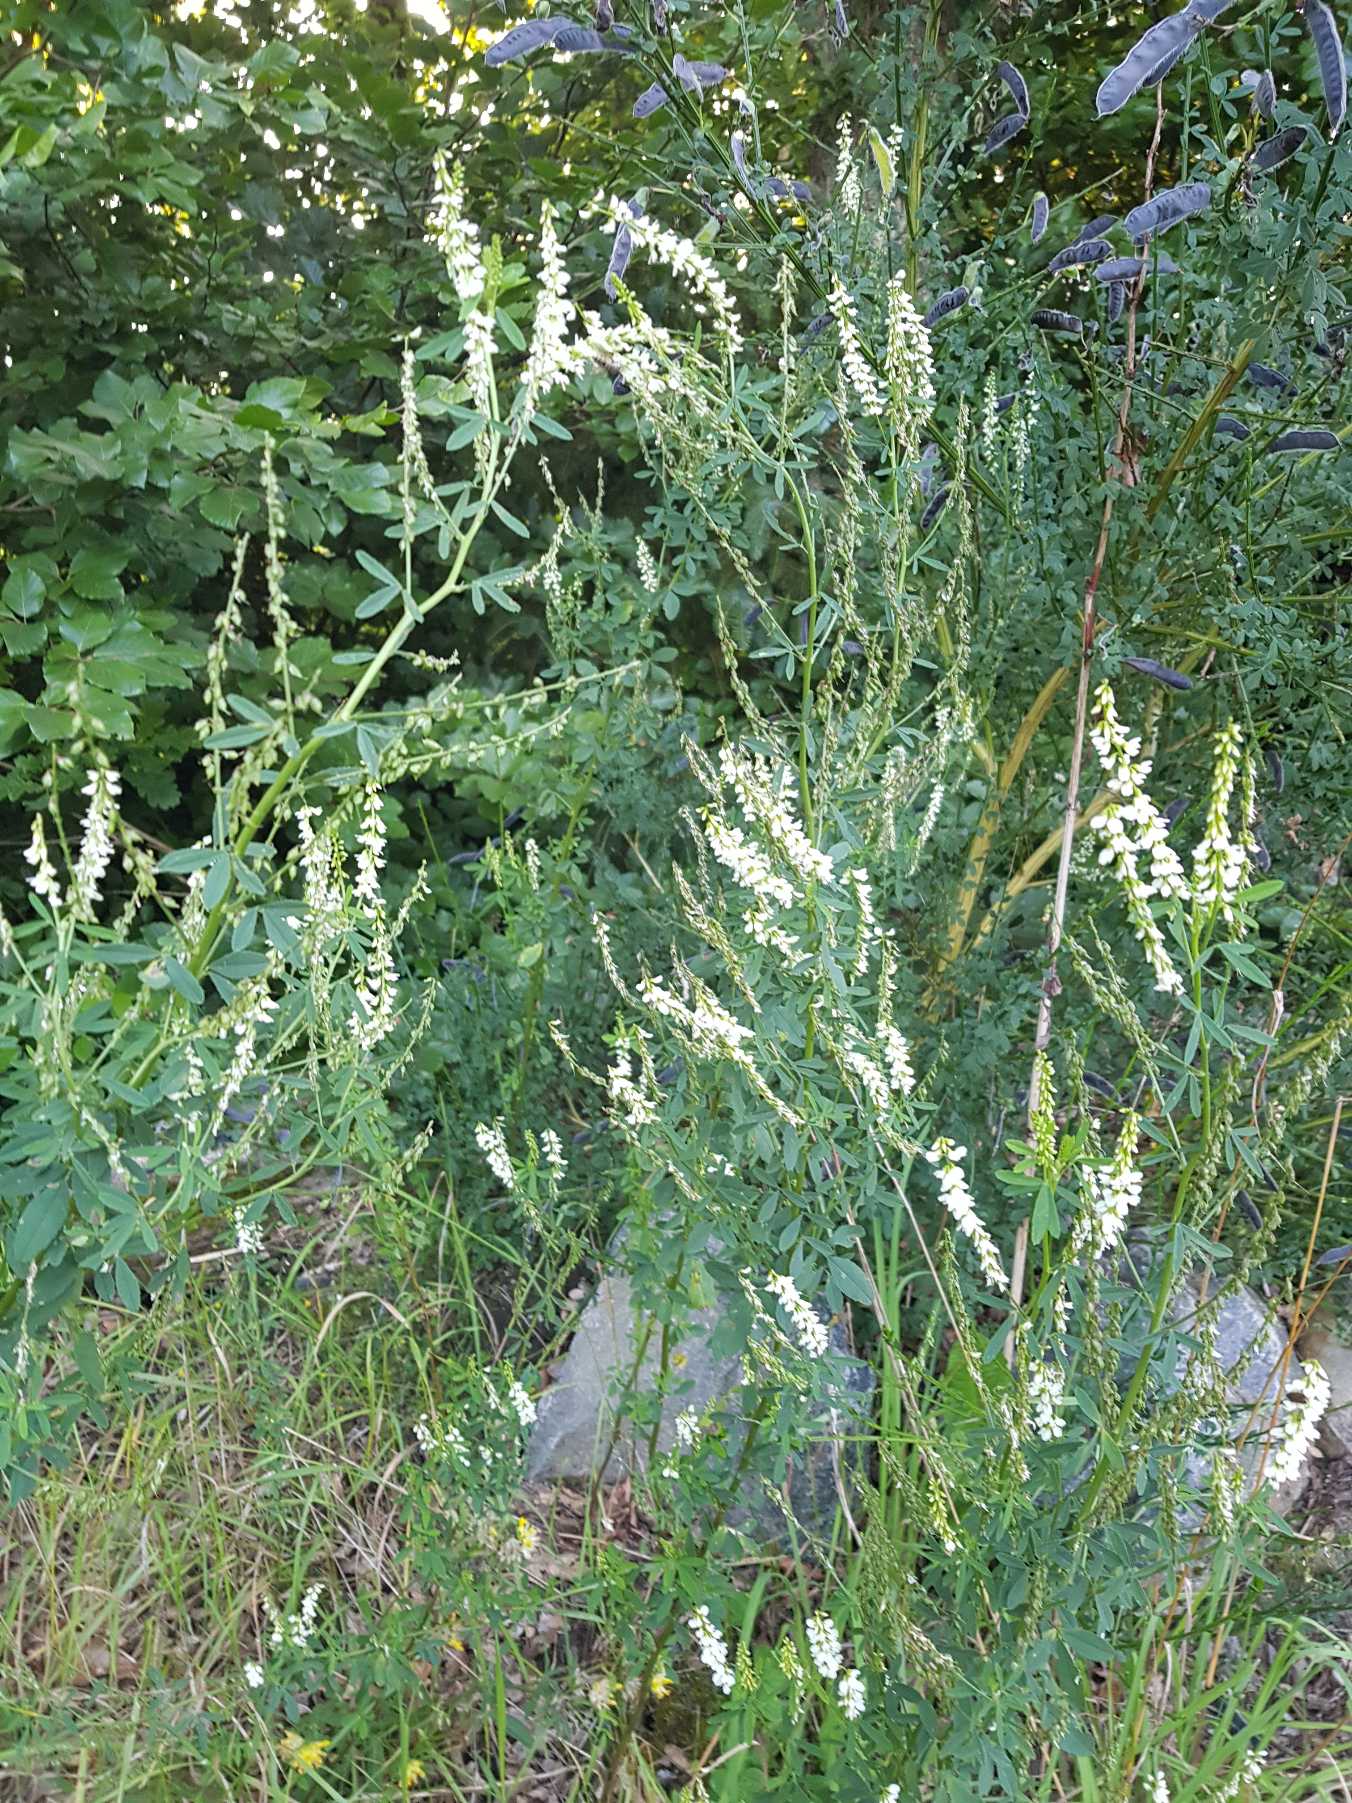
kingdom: Plantae
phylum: Tracheophyta
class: Magnoliopsida
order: Fabales
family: Fabaceae
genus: Melilotus
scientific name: Melilotus albus
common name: Hvid stenkløver
